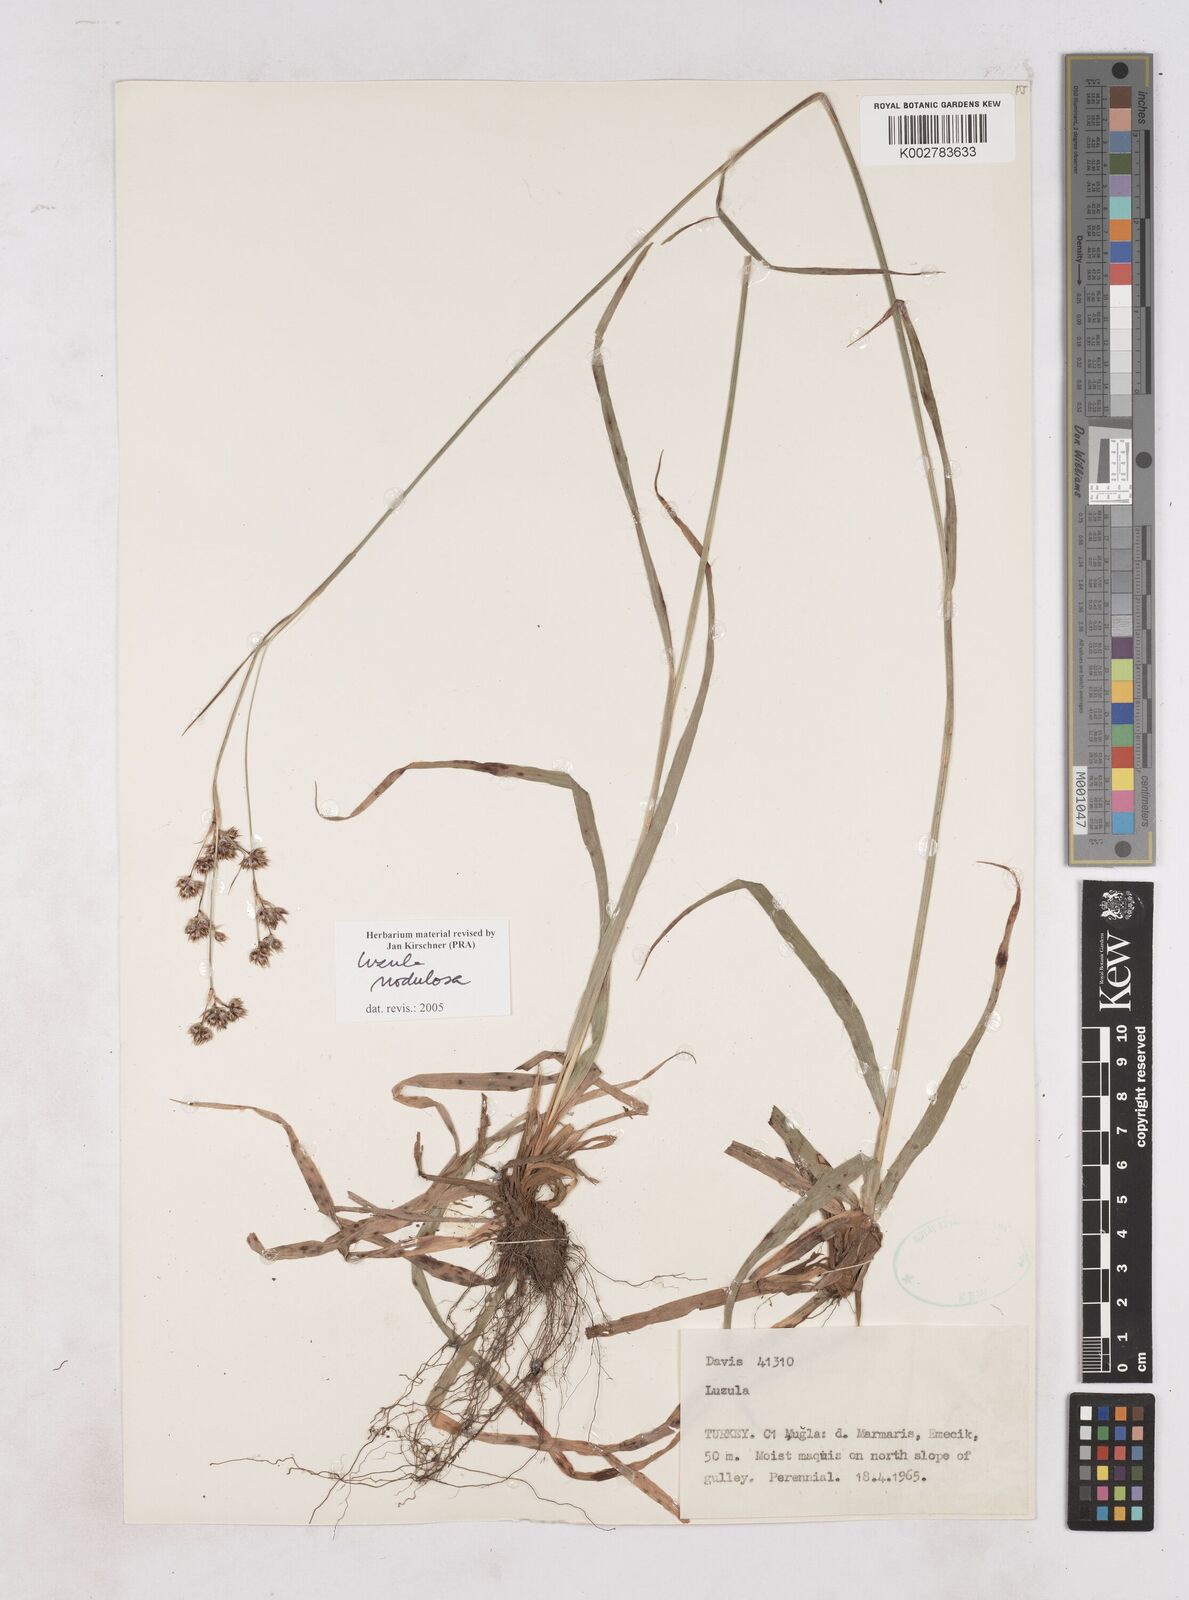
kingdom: Plantae
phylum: Tracheophyta
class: Liliopsida
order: Poales
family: Juncaceae
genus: Luzula
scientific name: Luzula nodulosa
